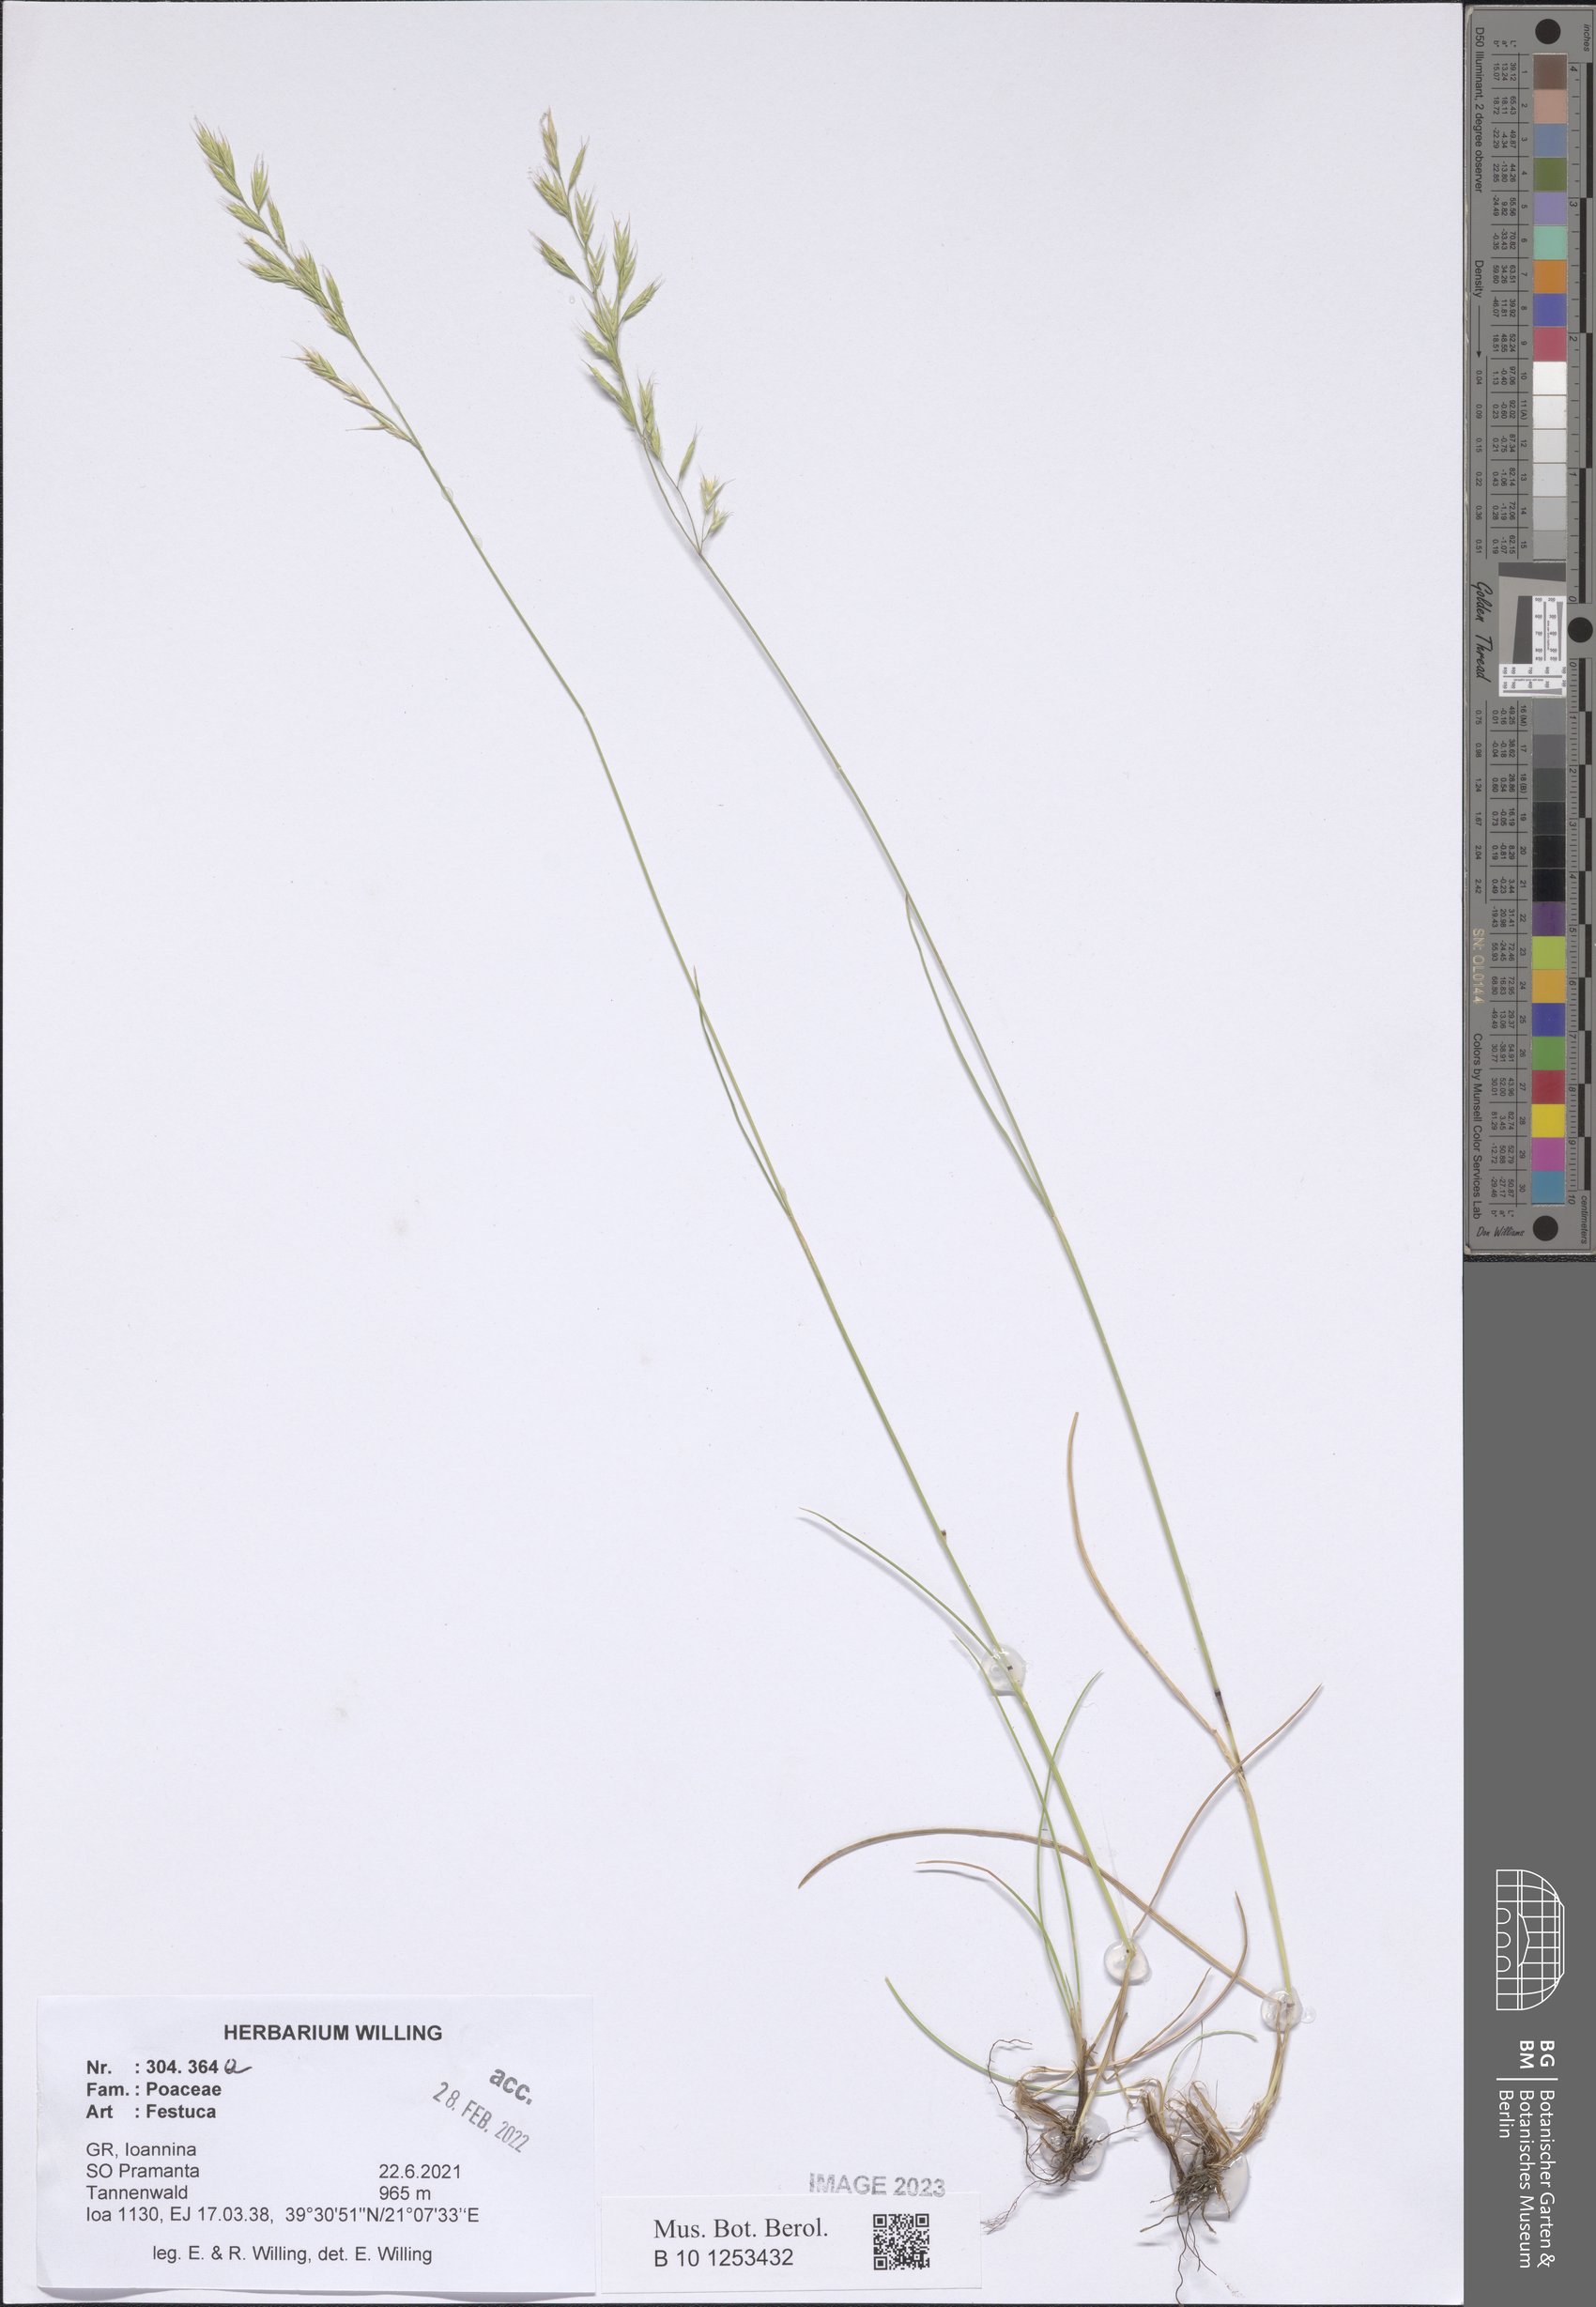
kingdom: Plantae
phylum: Tracheophyta
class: Liliopsida
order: Poales
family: Poaceae
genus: Festuca
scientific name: Festuca
